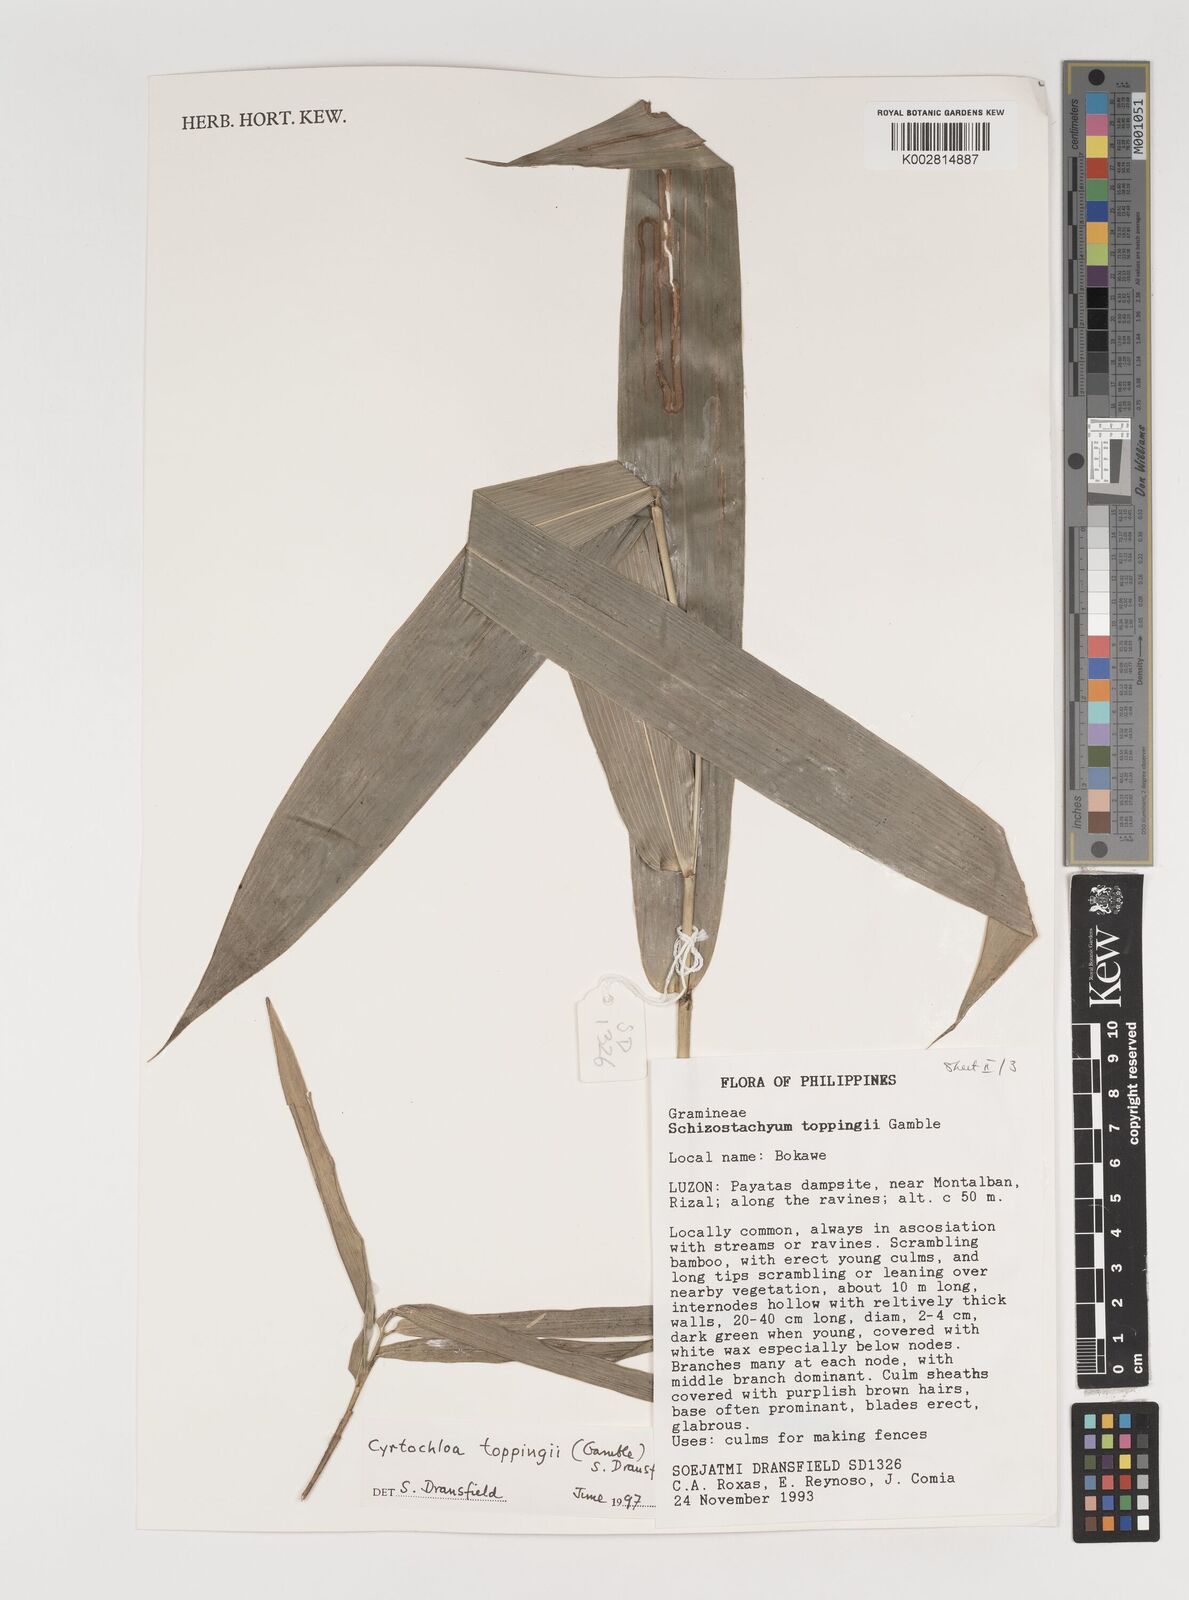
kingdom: Plantae
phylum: Tracheophyta
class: Liliopsida
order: Poales
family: Poaceae
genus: Cyrtochloa
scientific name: Cyrtochloa toppingii
